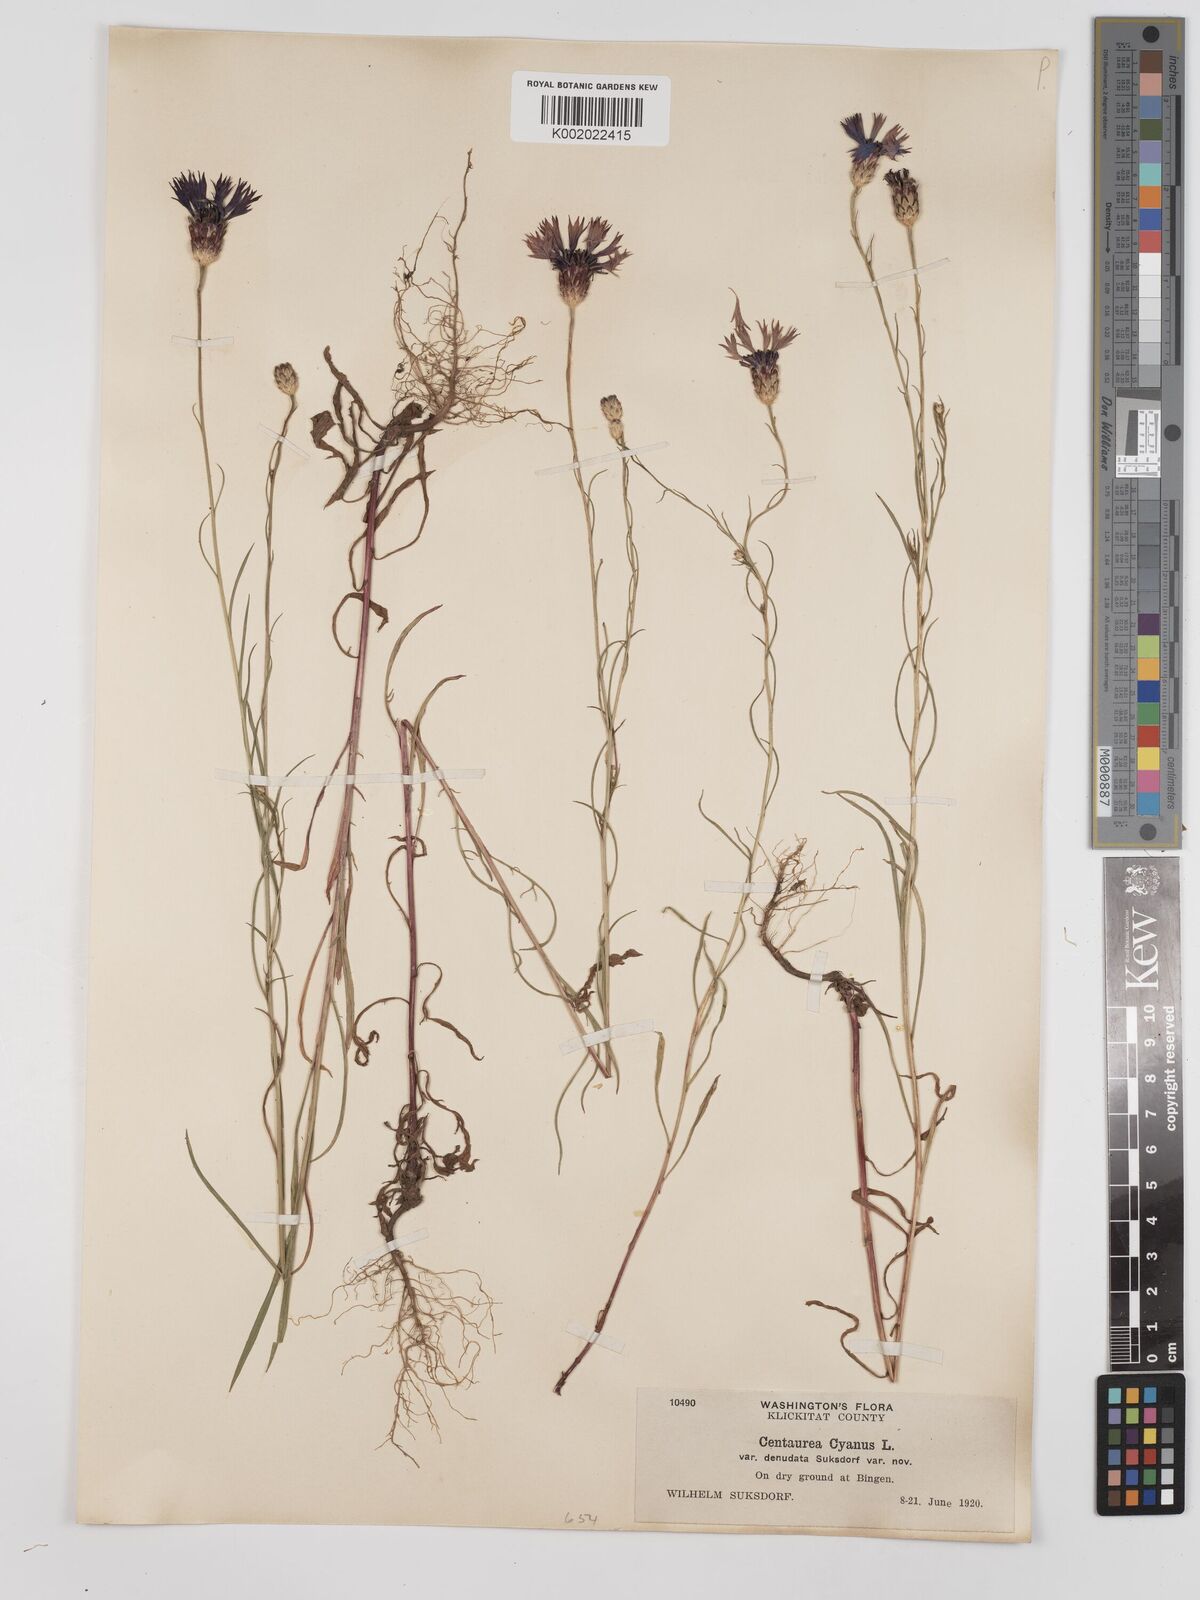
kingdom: Plantae
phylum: Tracheophyta
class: Magnoliopsida
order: Asterales
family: Asteraceae
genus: Centaurea
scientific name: Centaurea cyanus
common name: Cornflower
